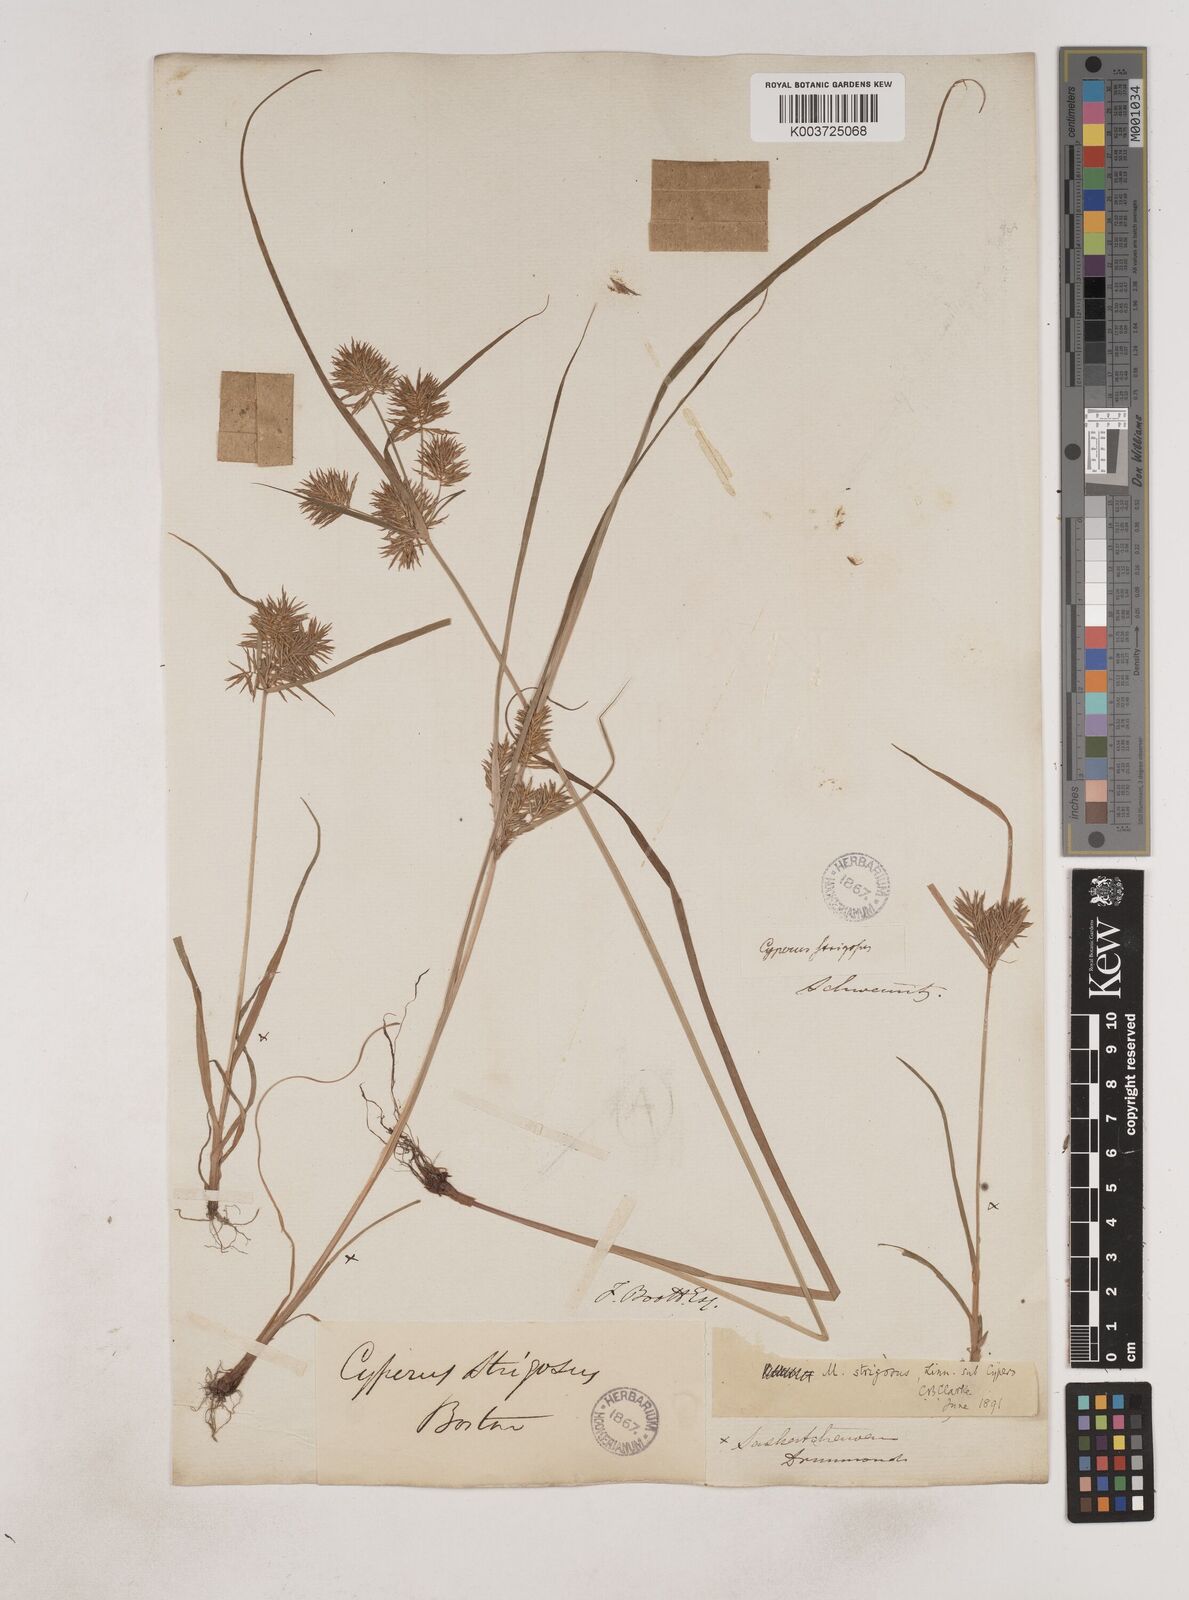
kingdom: Plantae
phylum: Tracheophyta
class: Liliopsida
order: Poales
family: Cyperaceae
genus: Cyperus
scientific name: Cyperus strigosus
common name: False nutsedge
